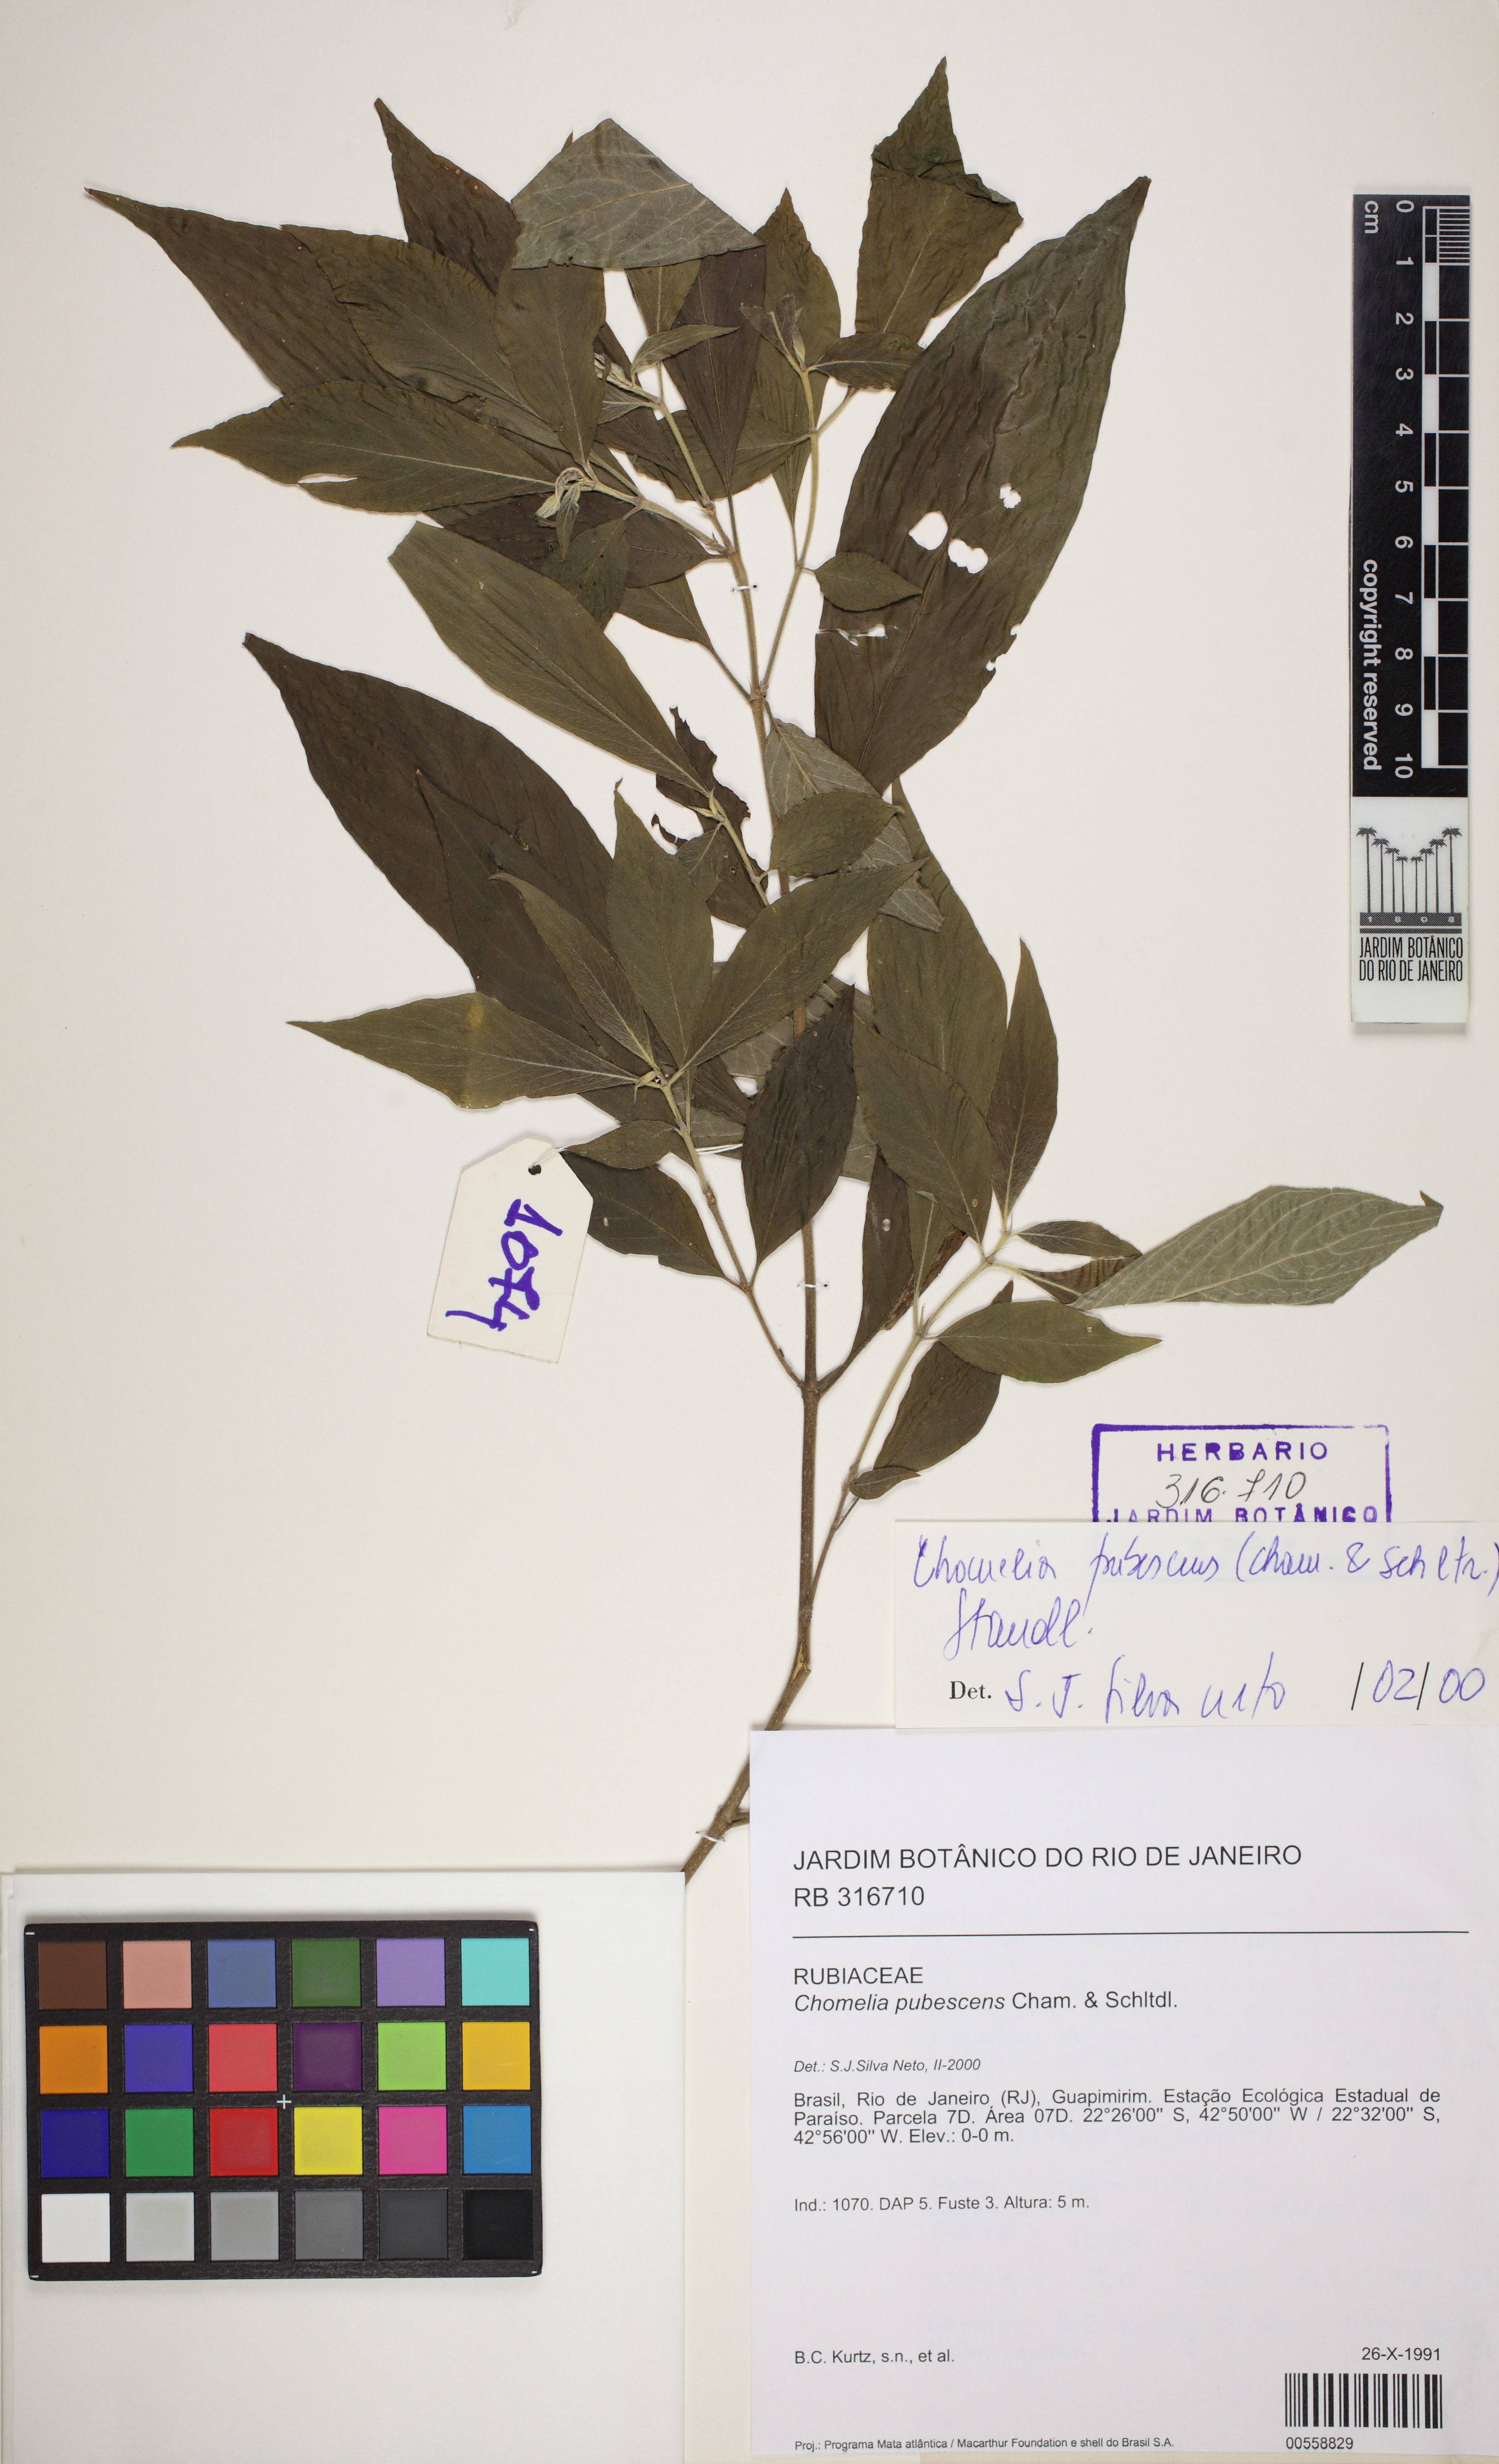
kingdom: Plantae
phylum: Tracheophyta
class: Magnoliopsida
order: Gentianales
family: Rubiaceae
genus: Chomelia
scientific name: Chomelia pubescens
